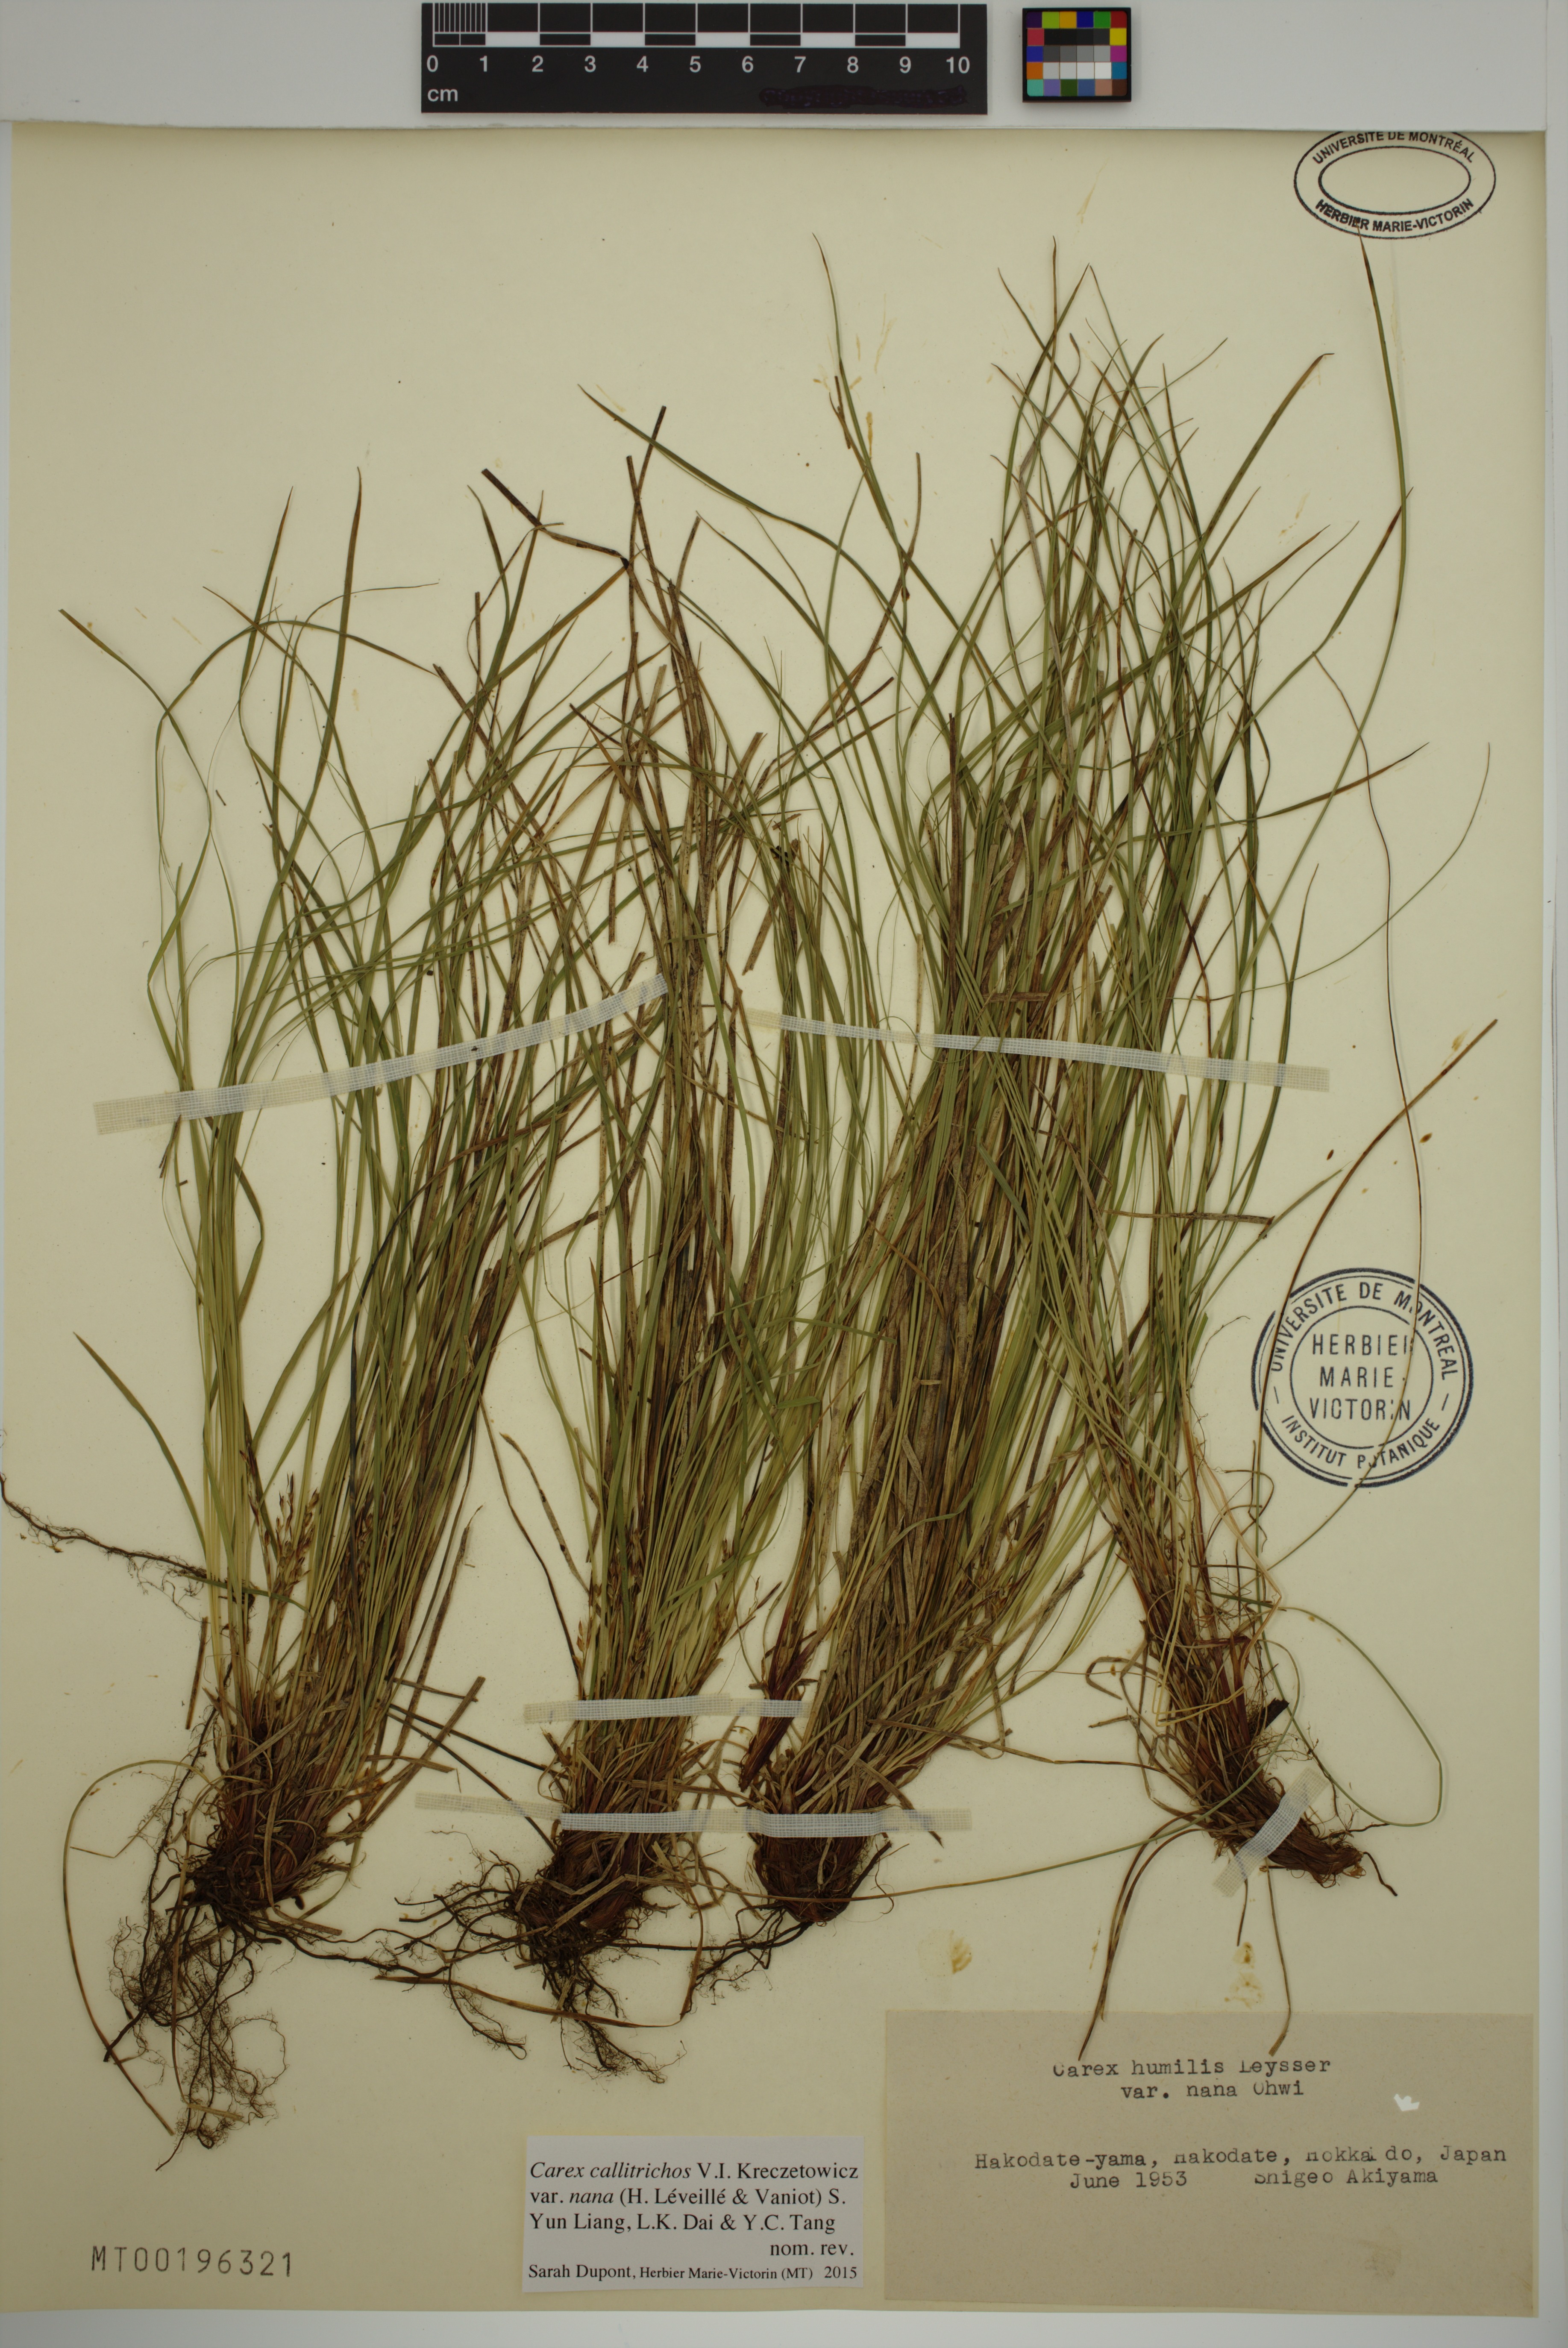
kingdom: Plantae
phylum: Tracheophyta
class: Liliopsida
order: Poales
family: Cyperaceae
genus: Carex
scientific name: Carex callitrichos
